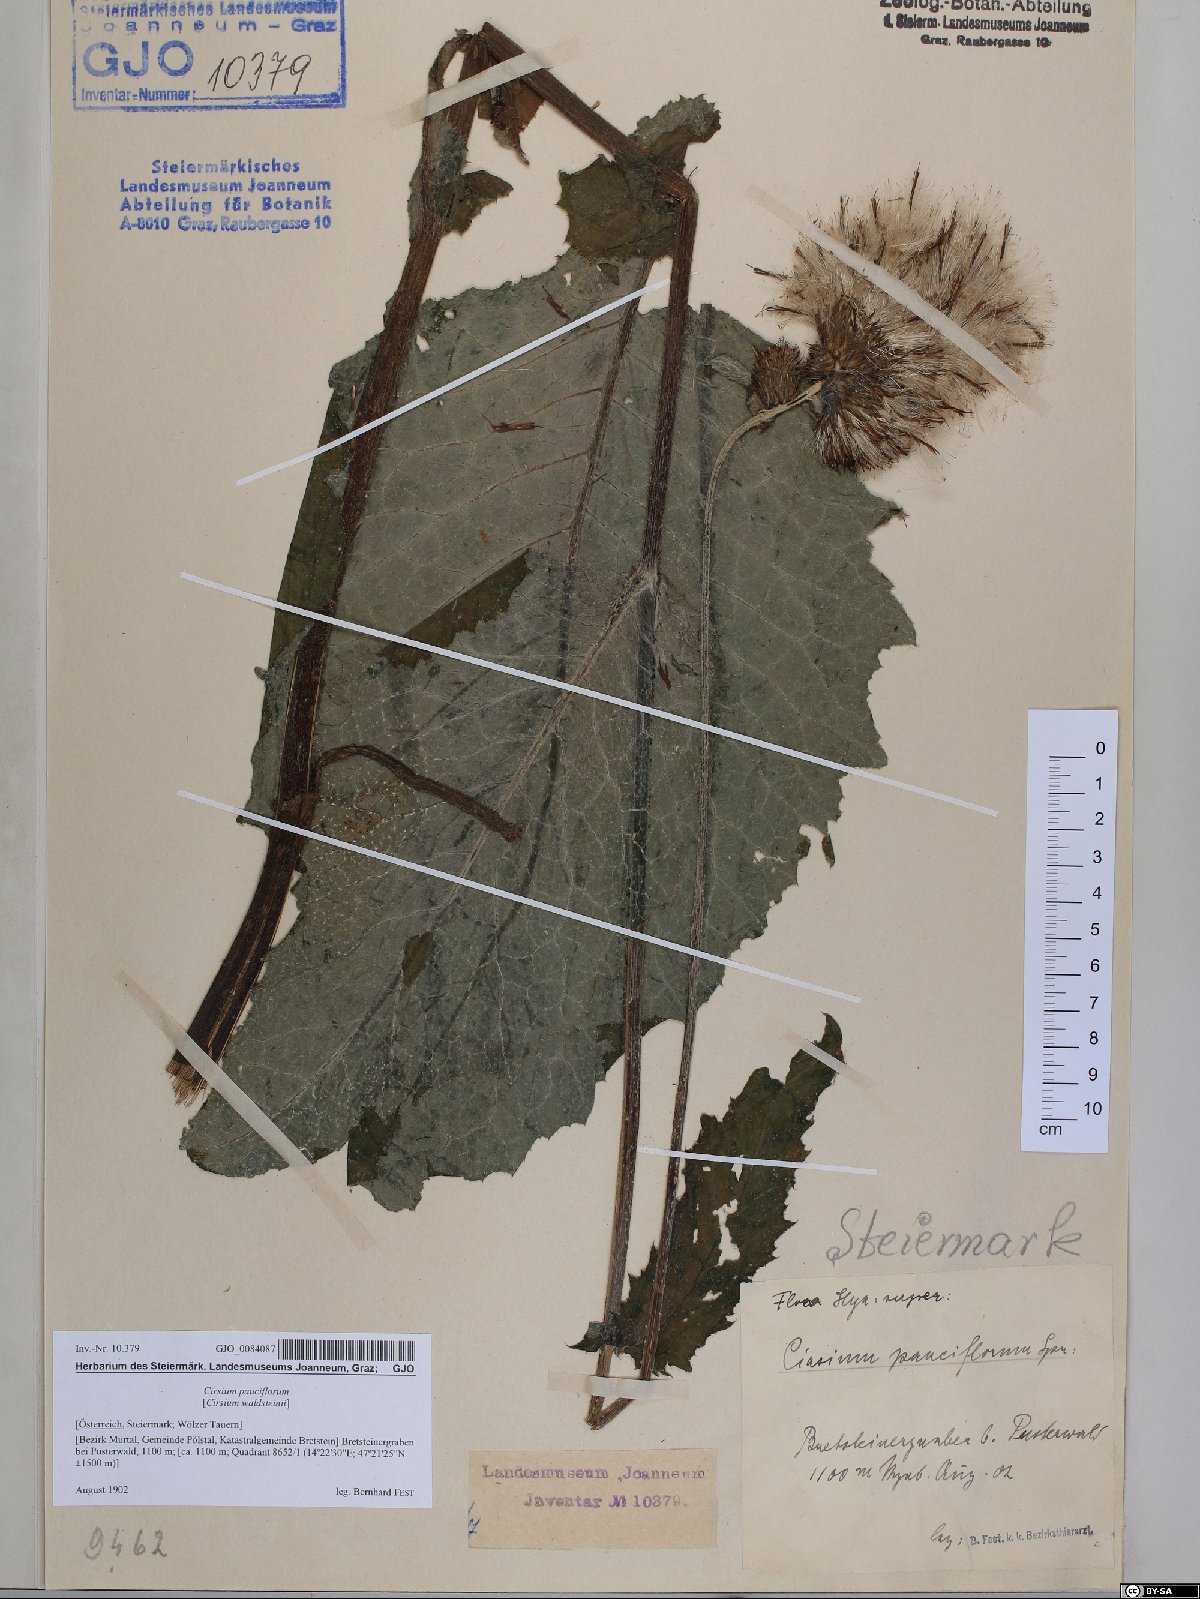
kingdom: Plantae
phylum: Tracheophyta
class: Magnoliopsida
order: Asterales
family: Asteraceae
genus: Cirsium
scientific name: Cirsium greimleri
